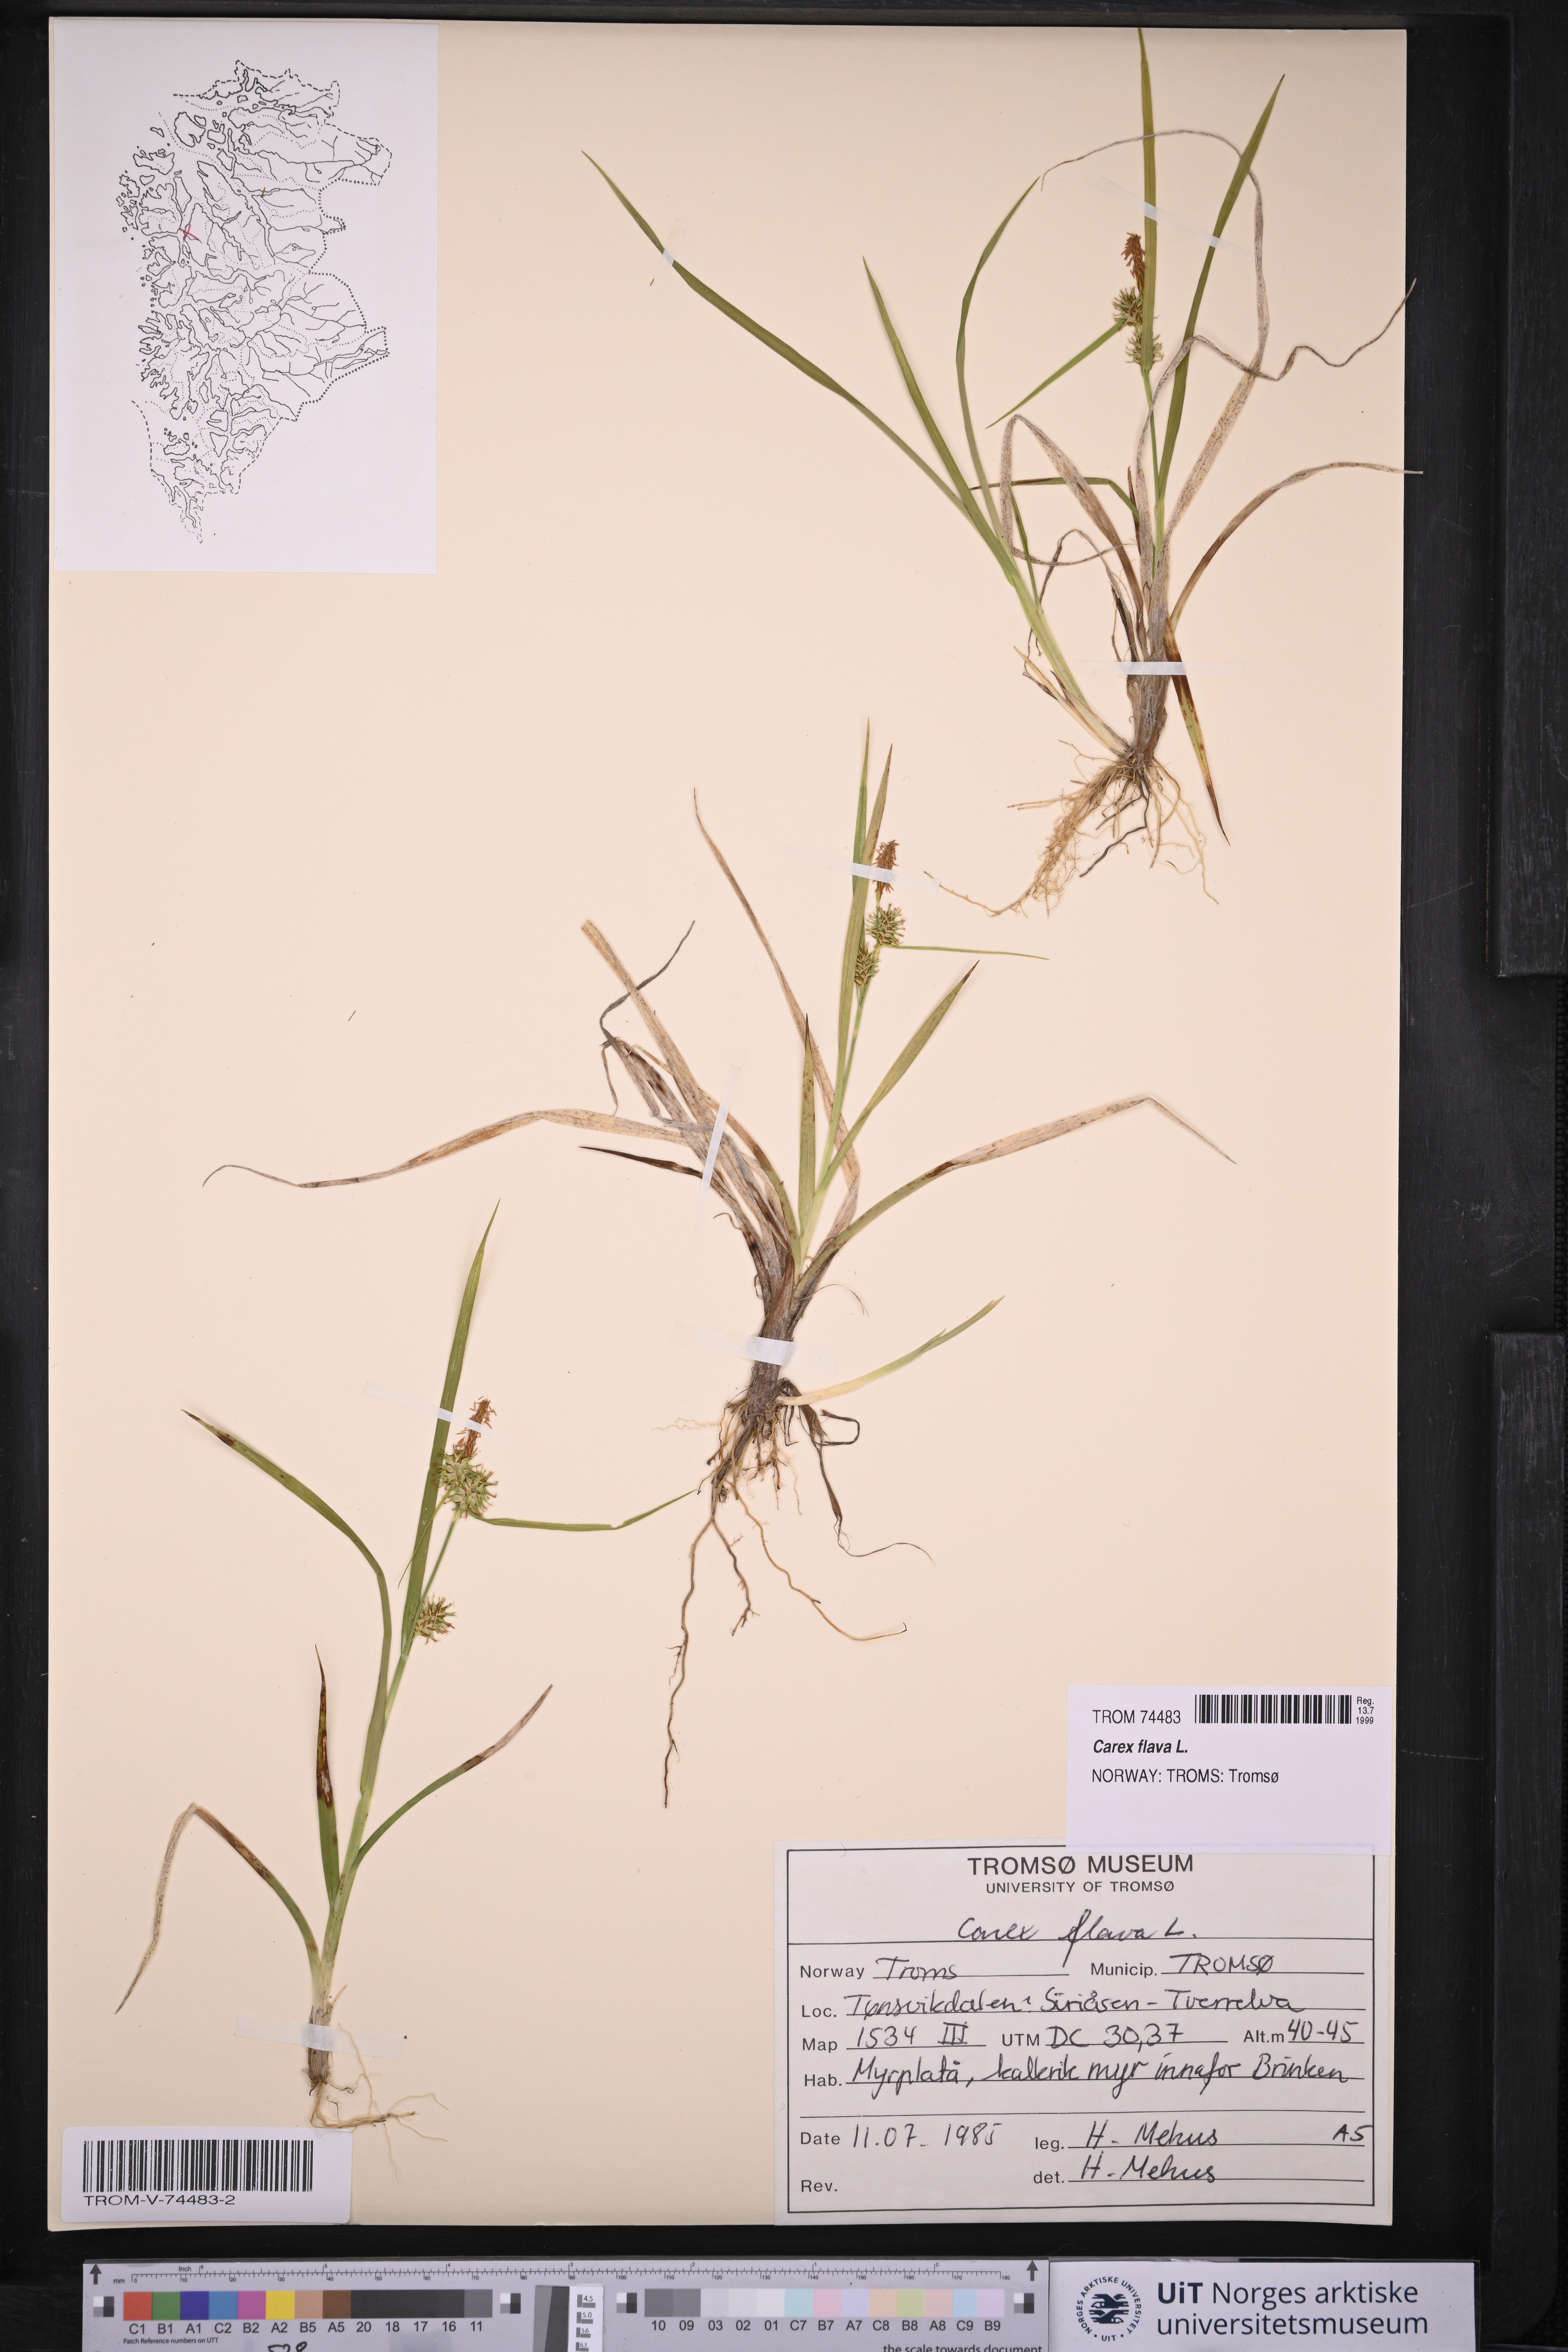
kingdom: Plantae
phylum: Tracheophyta
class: Liliopsida
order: Poales
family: Cyperaceae
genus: Carex
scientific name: Carex flava
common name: Large yellow-sedge
